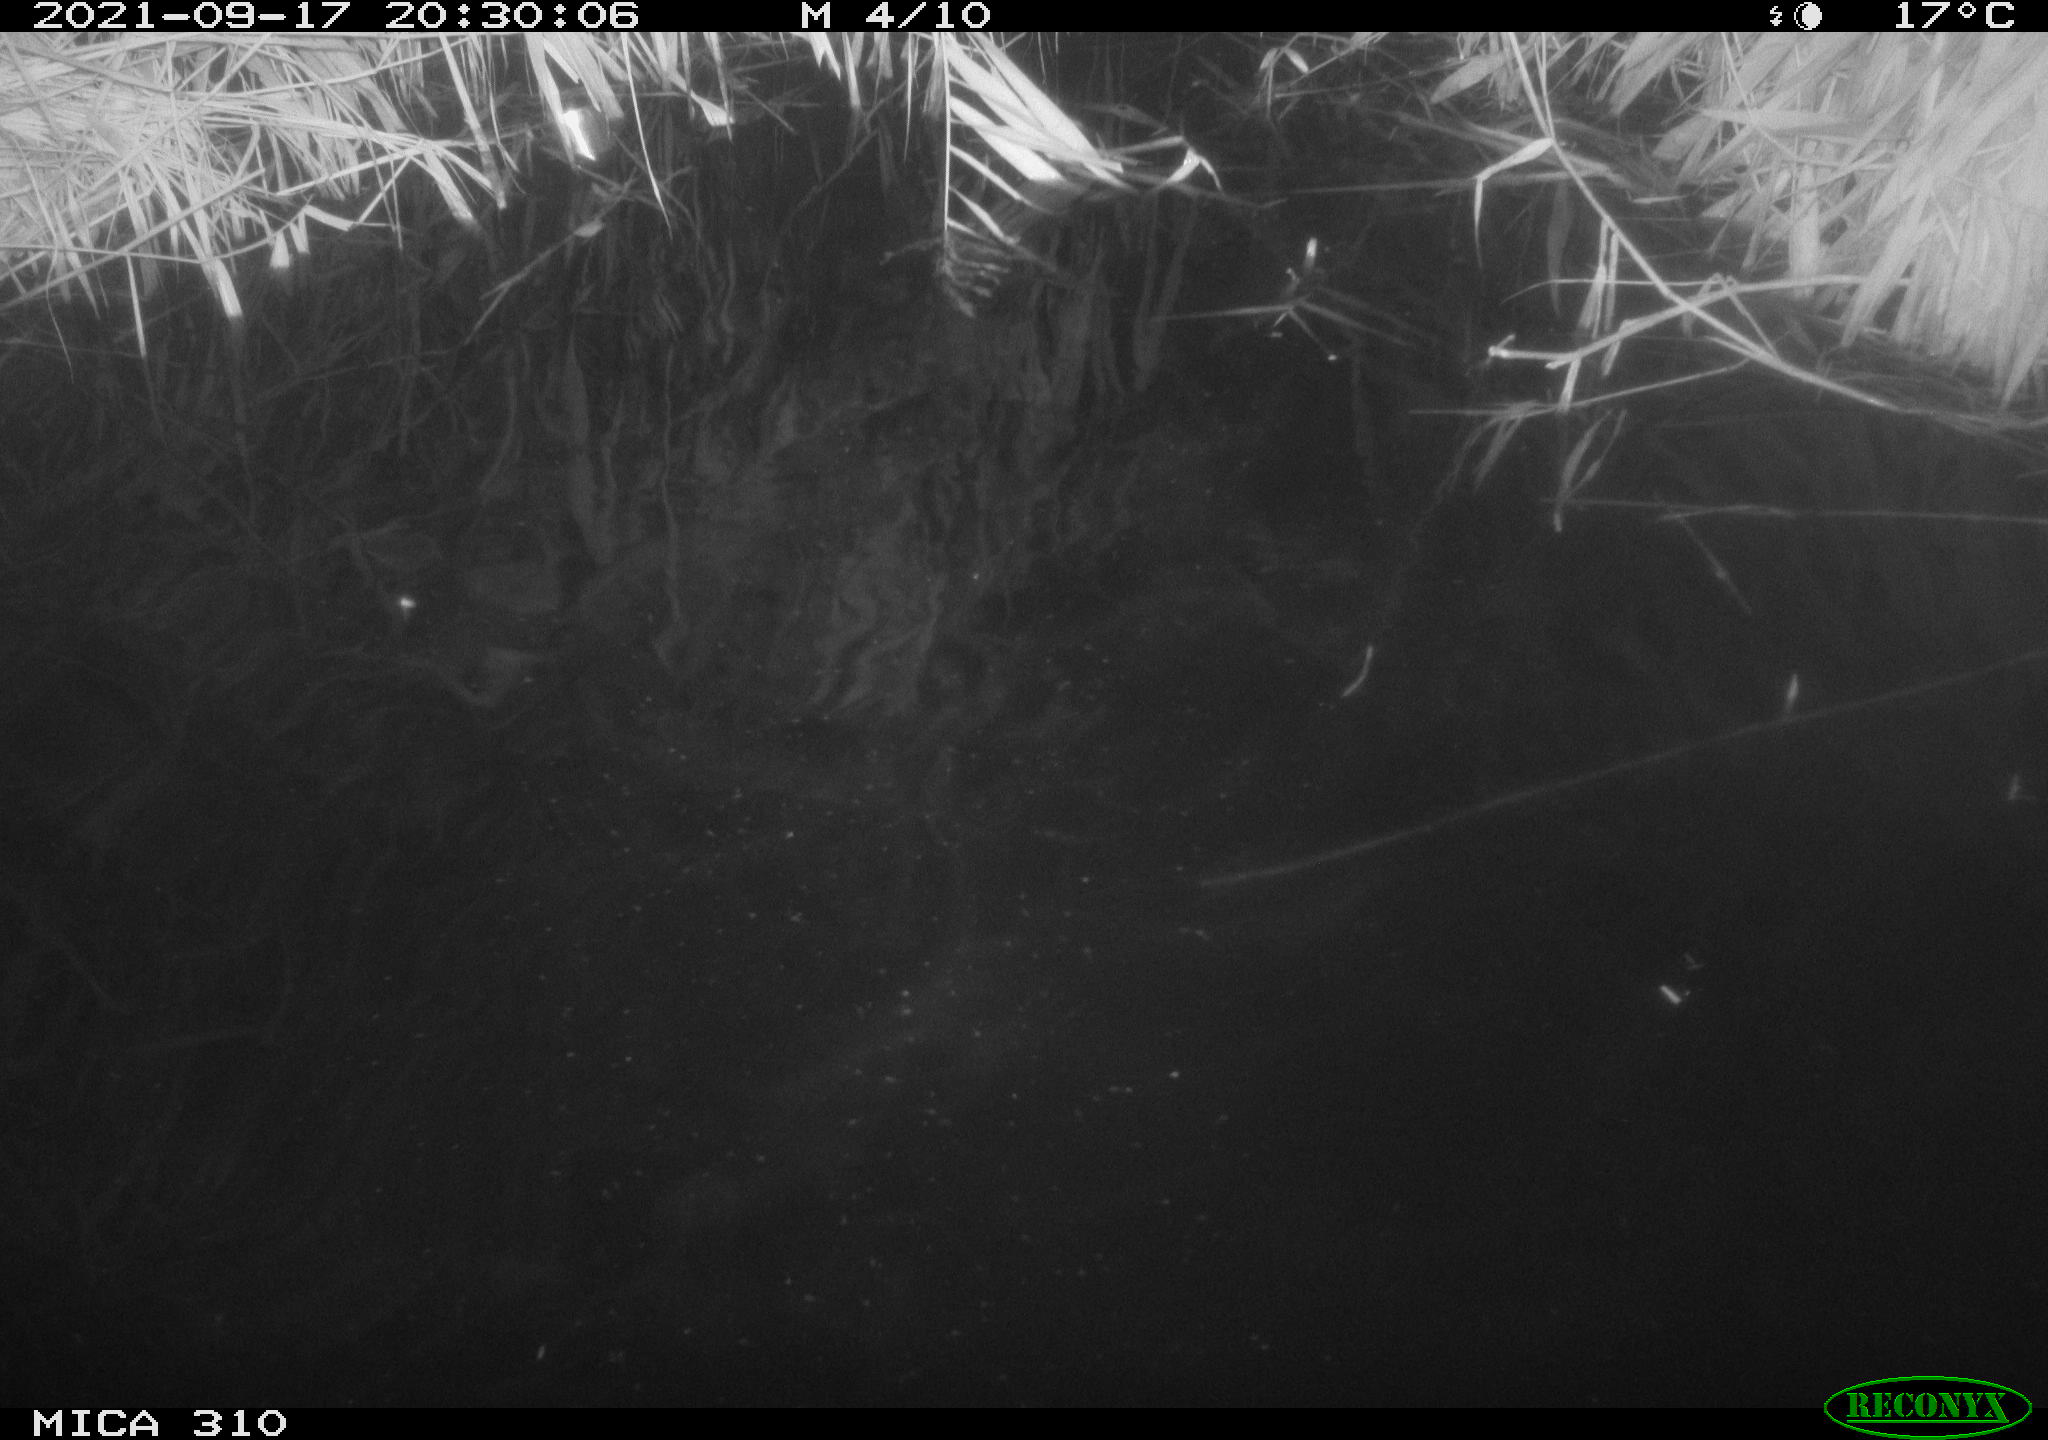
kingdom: Animalia
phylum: Chordata
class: Aves
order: Podicipediformes
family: Podicipedidae
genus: Tachybaptus
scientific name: Tachybaptus ruficollis
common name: Little grebe
